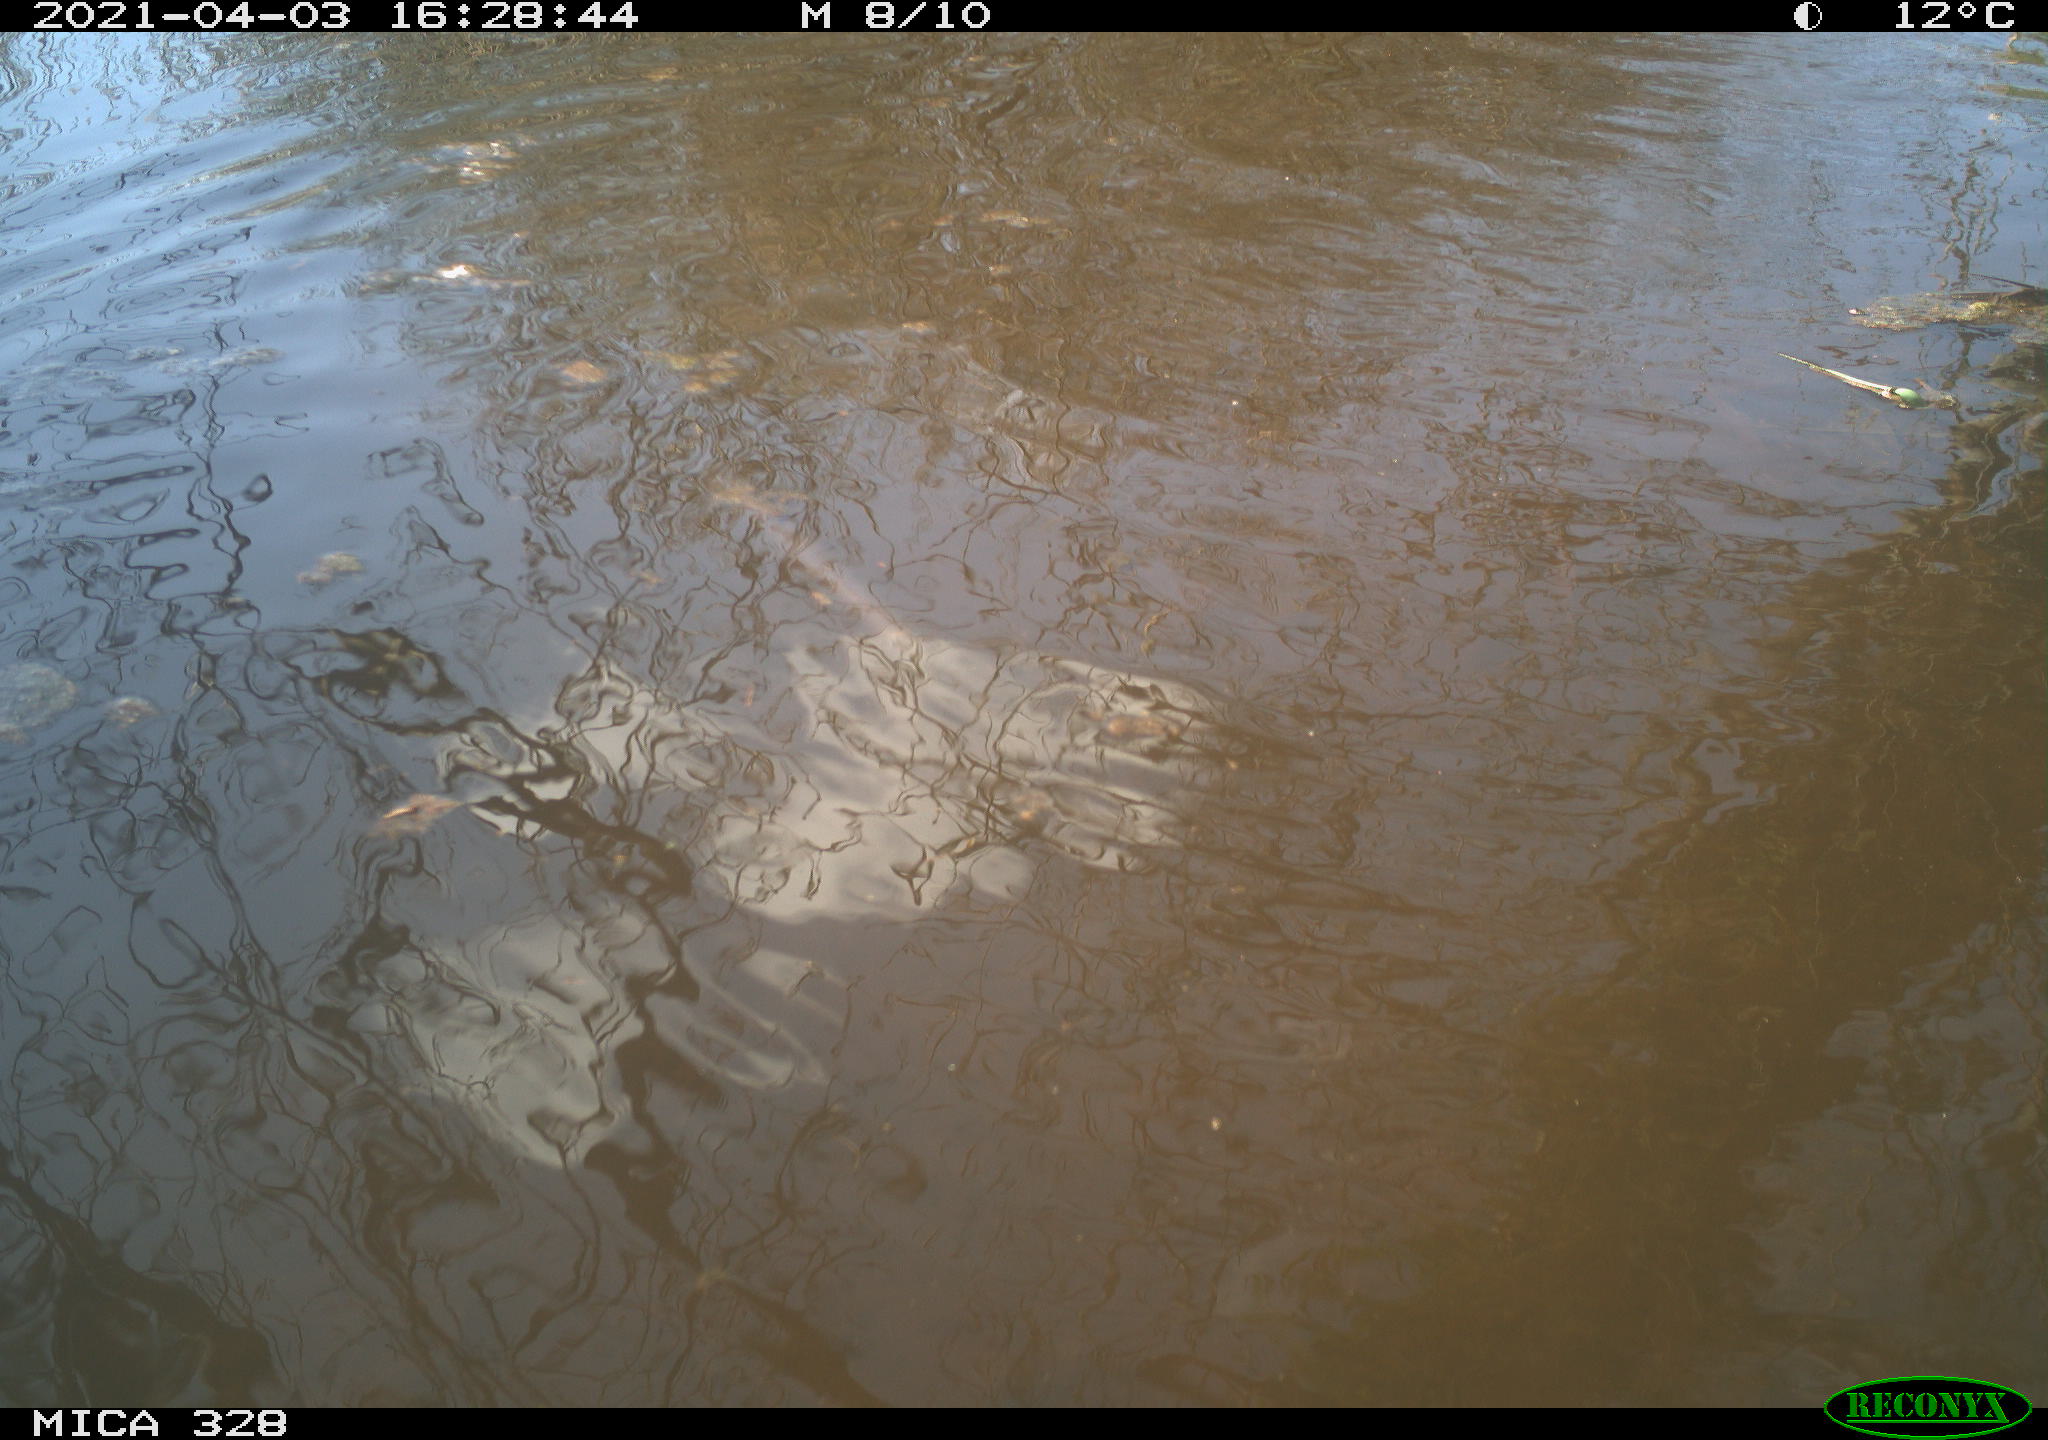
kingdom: Animalia
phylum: Chordata
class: Mammalia
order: Rodentia
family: Cricetidae
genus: Ondatra
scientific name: Ondatra zibethicus
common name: Muskrat
